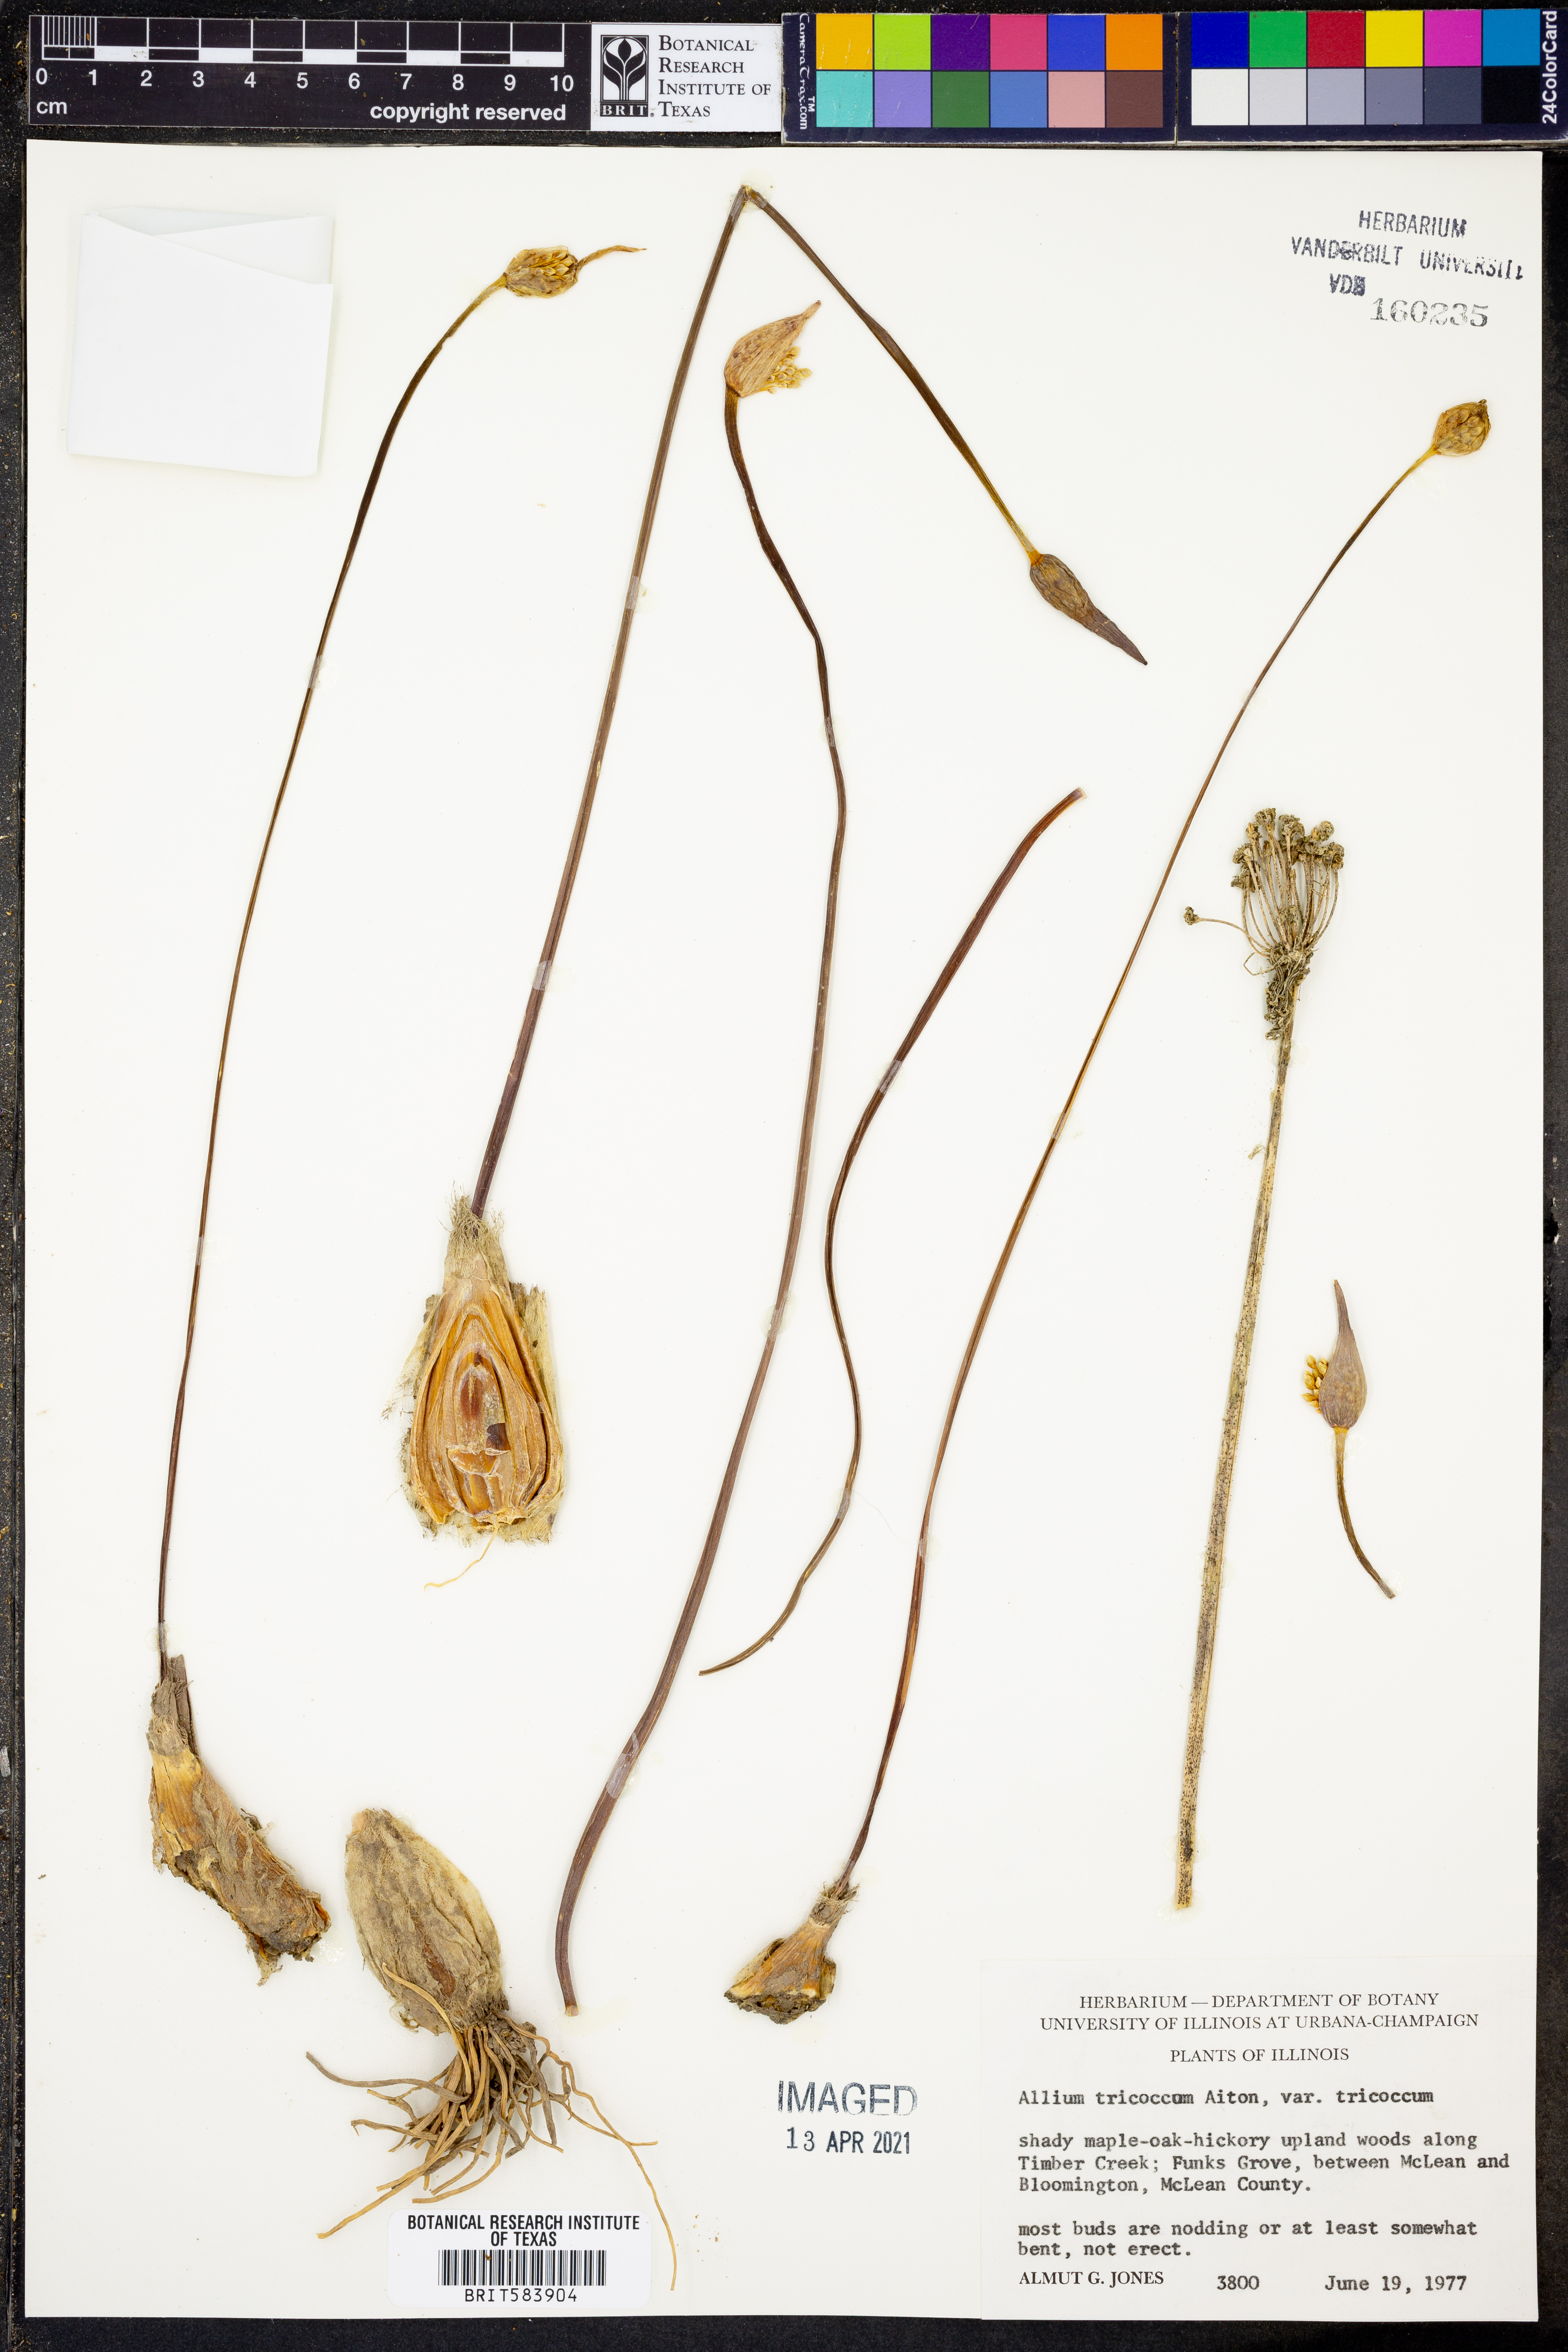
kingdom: Plantae
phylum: Tracheophyta
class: Liliopsida
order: Asparagales
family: Amaryllidaceae
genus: Allium
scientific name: Allium tricoccum
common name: Ramp
